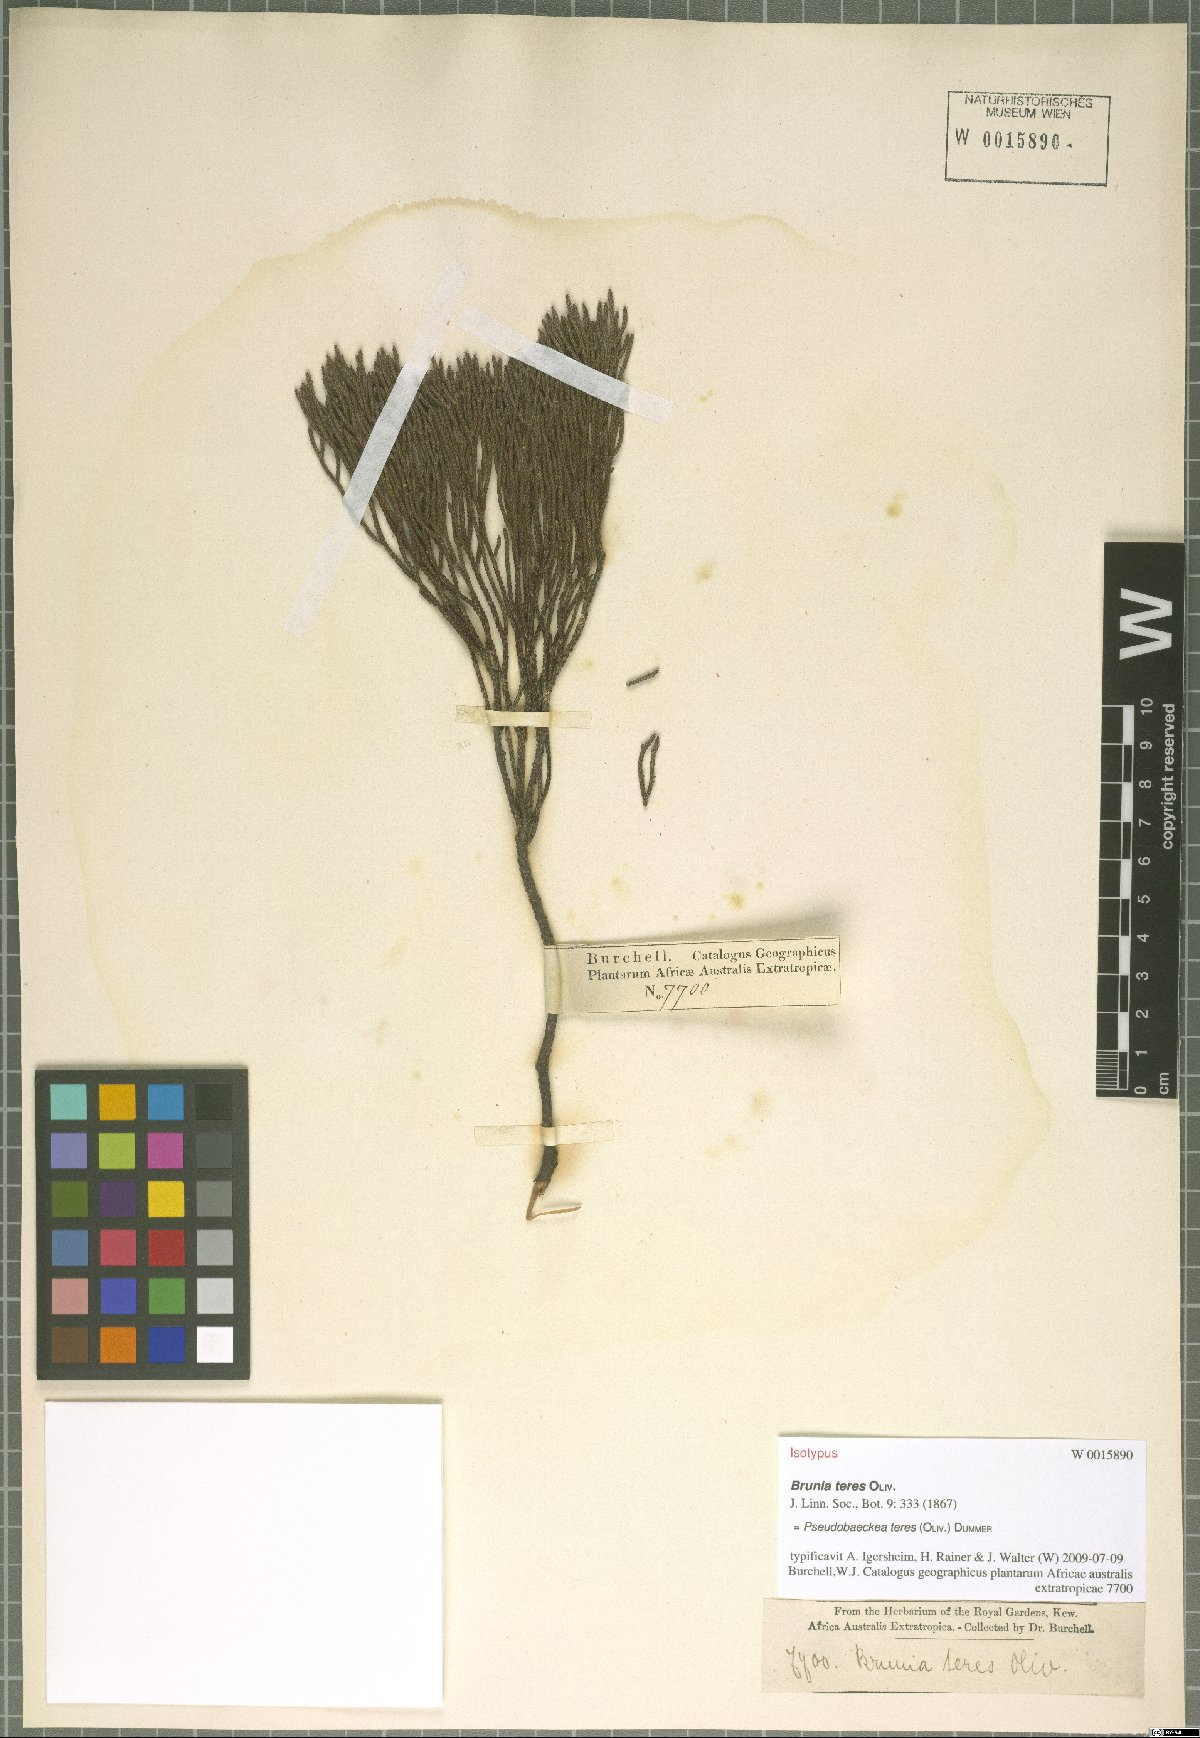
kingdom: Plantae
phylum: Tracheophyta
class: Magnoliopsida
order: Bruniales
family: Bruniaceae
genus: Thamnea
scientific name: Thamnea teres
